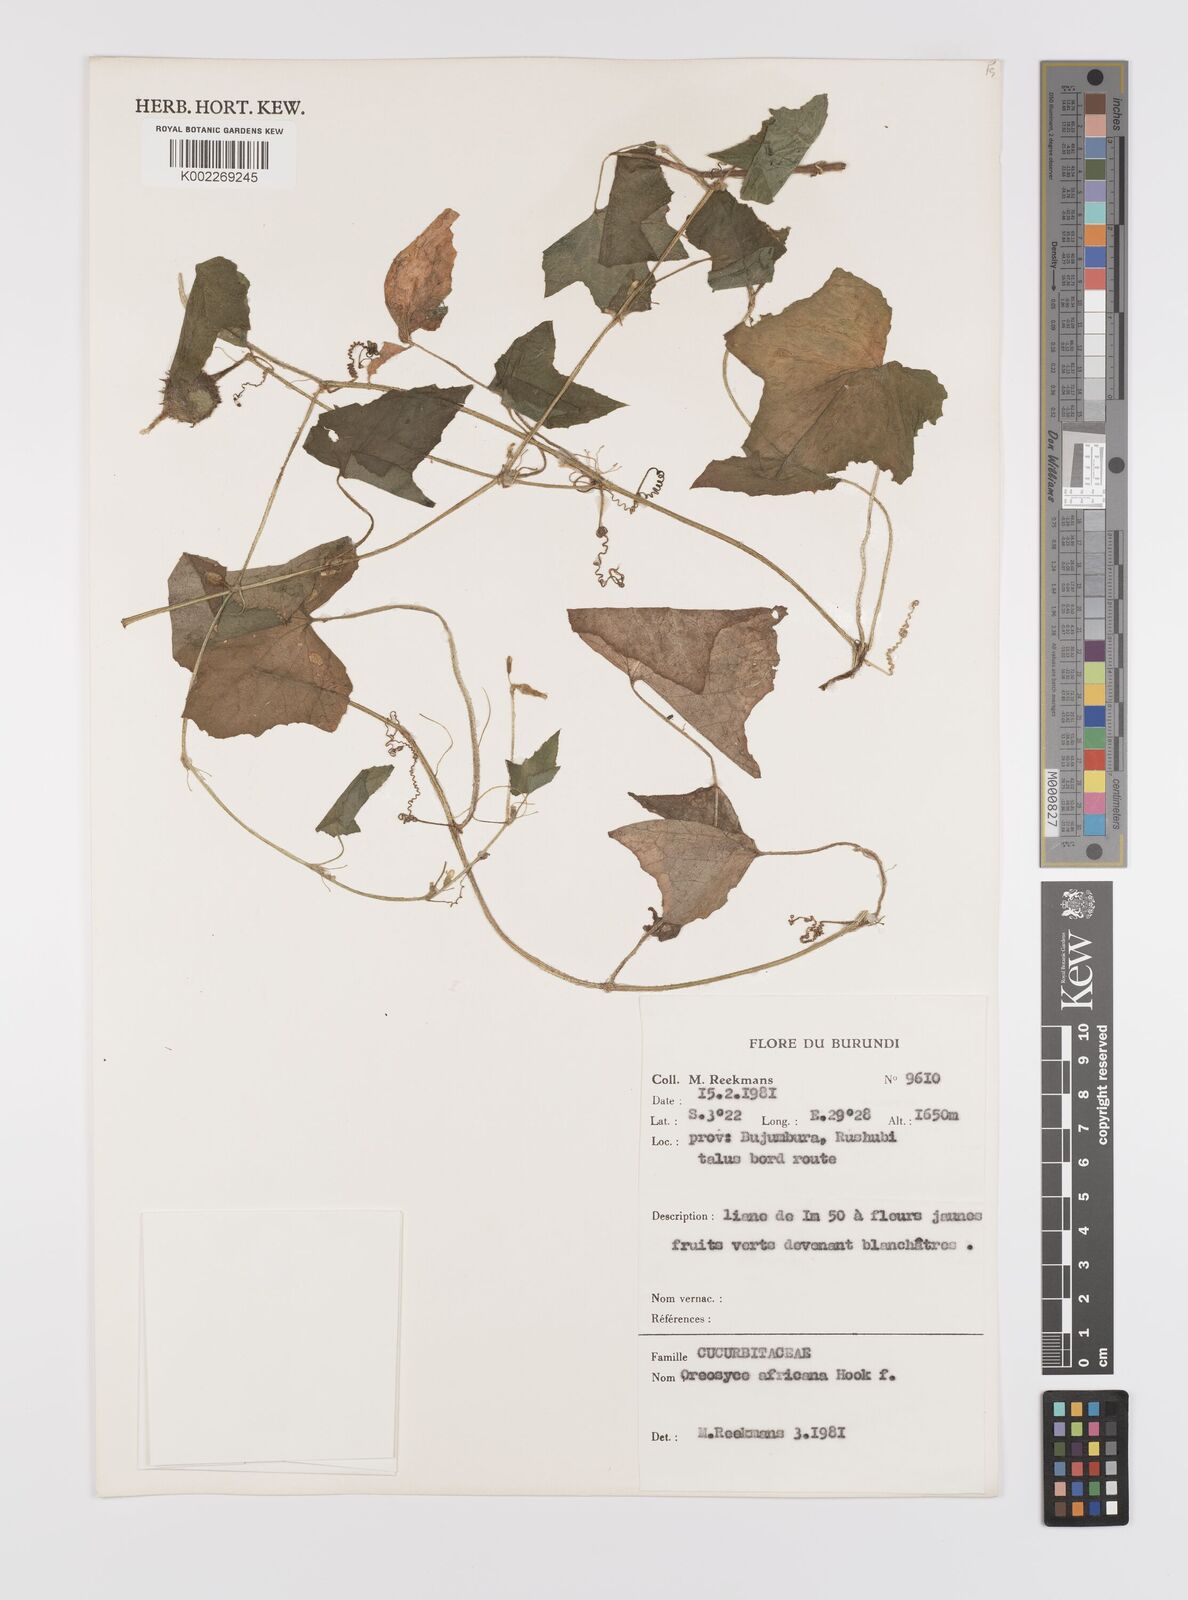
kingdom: Plantae
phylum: Tracheophyta
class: Magnoliopsida
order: Cucurbitales
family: Cucurbitaceae
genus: Cucumis
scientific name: Cucumis oreosyce
